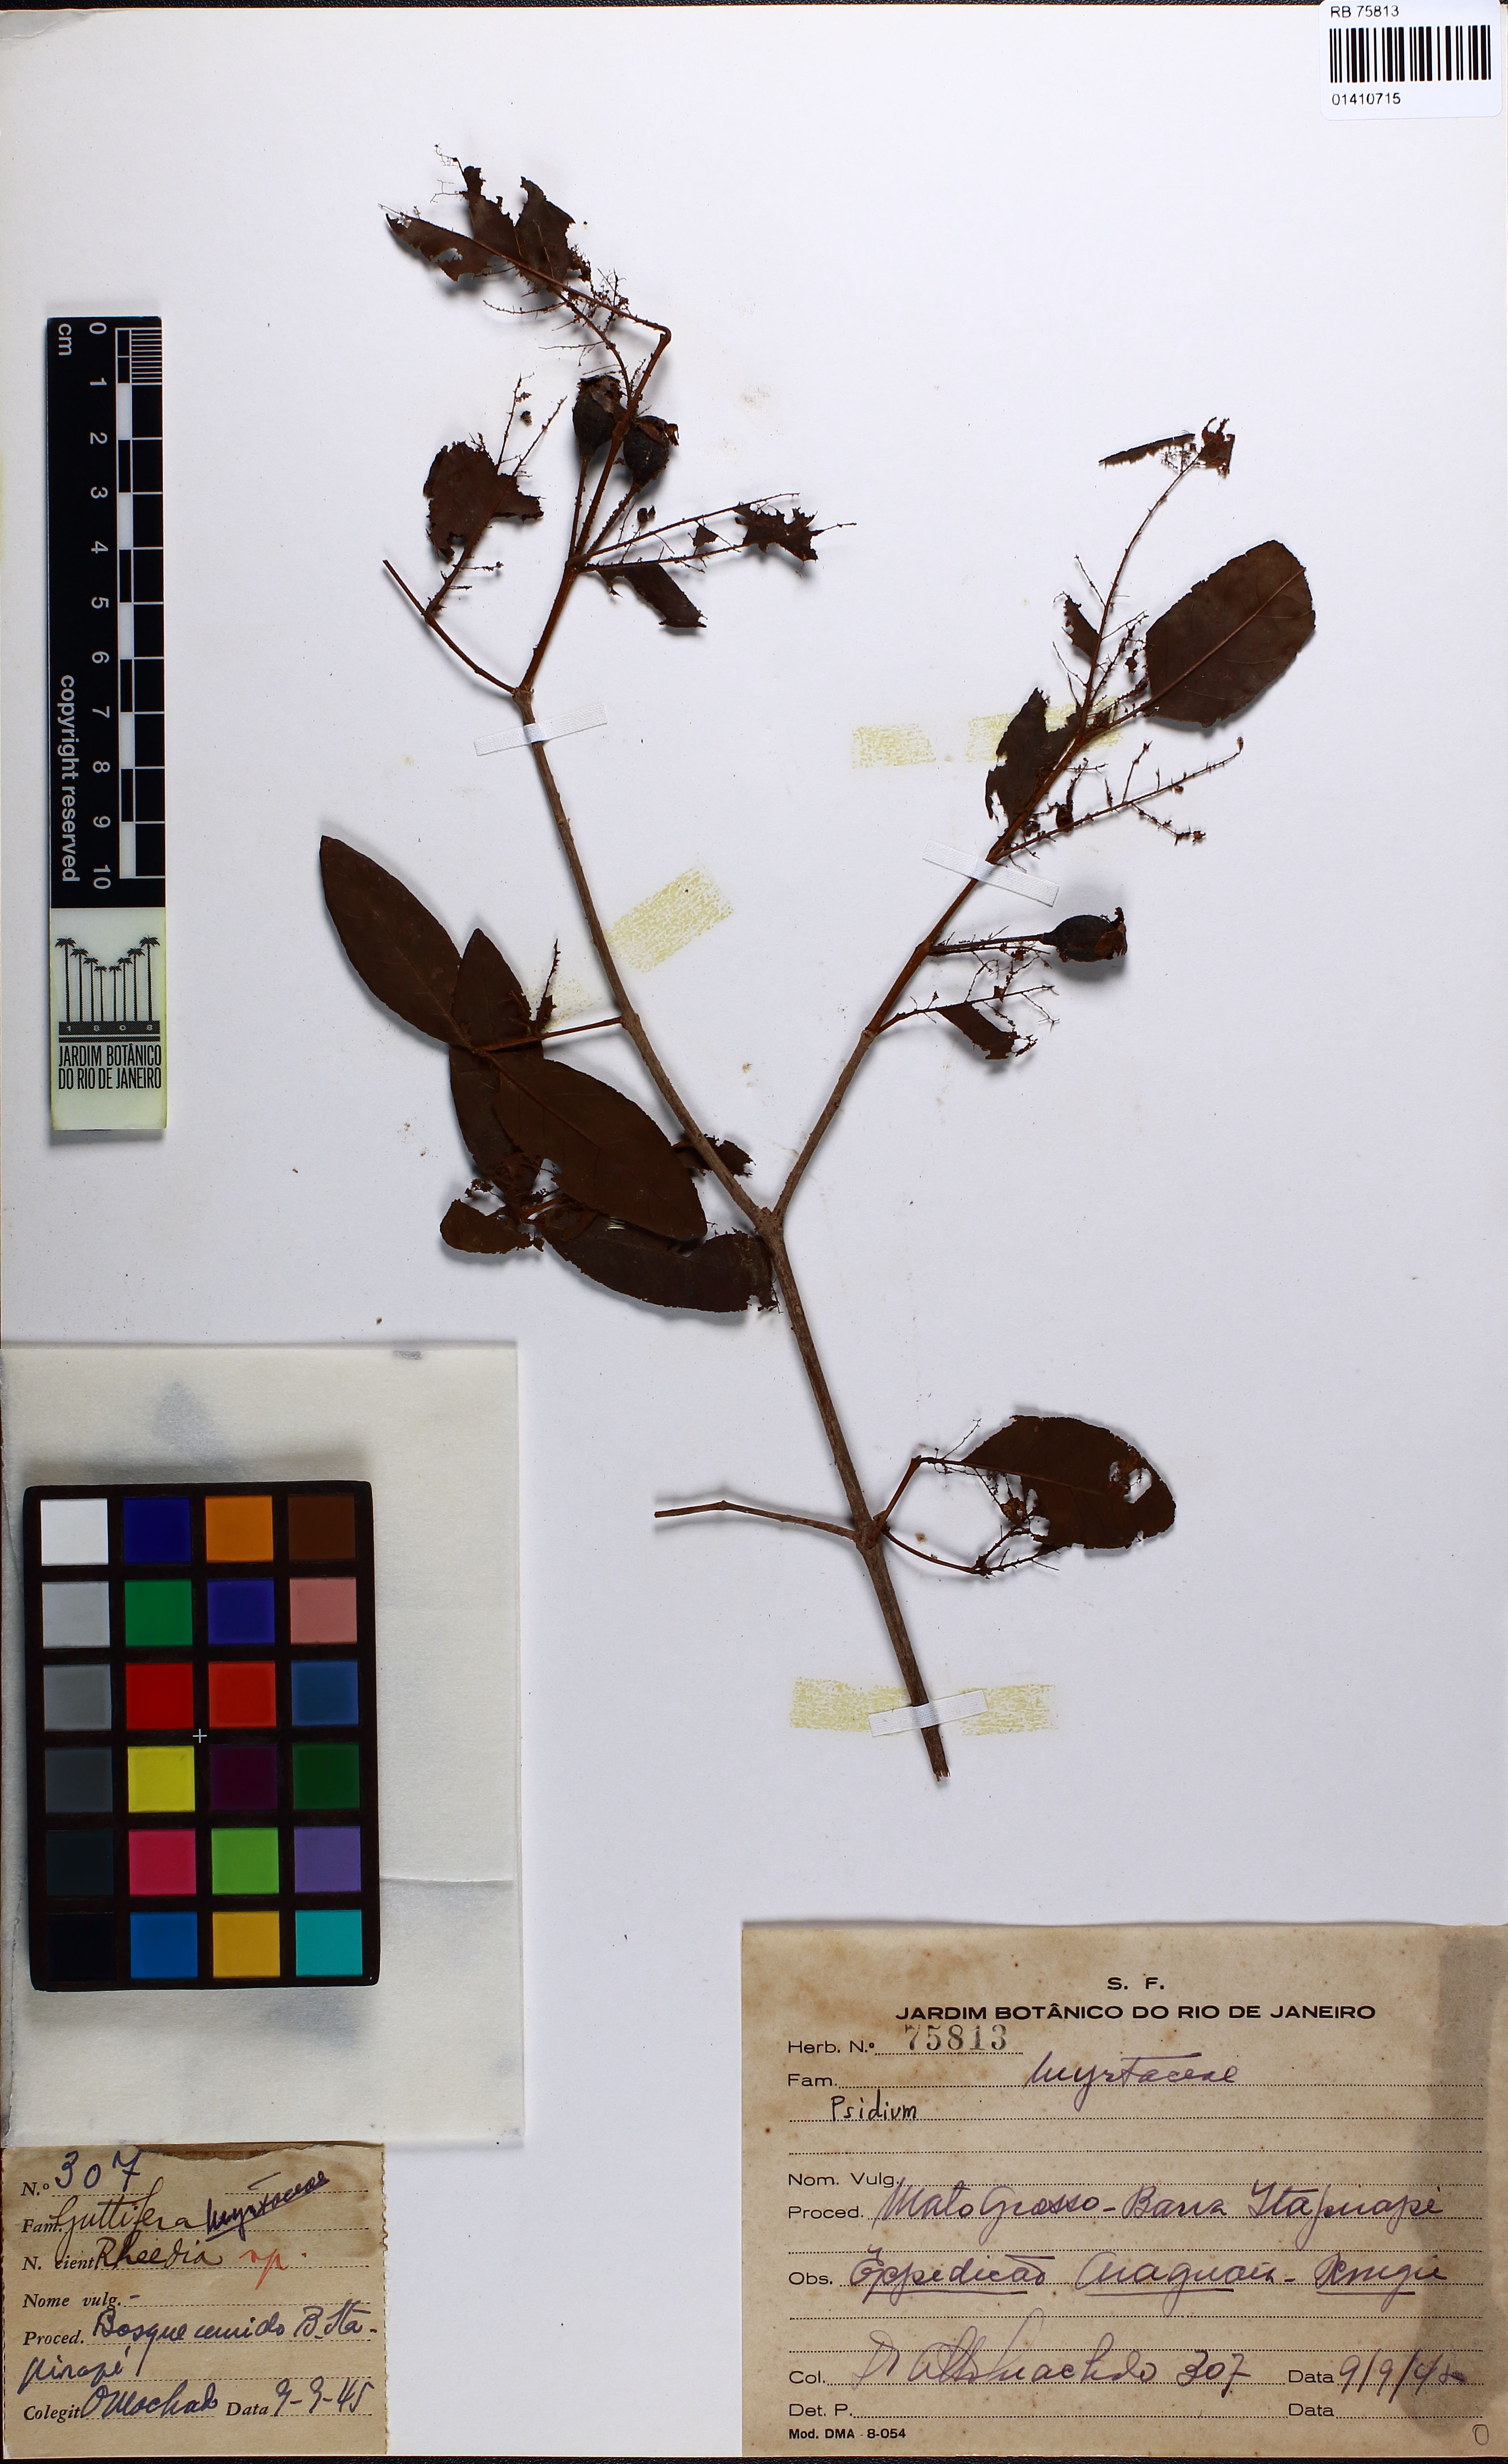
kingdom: Plantae
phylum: Tracheophyta
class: Magnoliopsida
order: Myrtales
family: Myrtaceae
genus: Psidium
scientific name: Psidium striatulum
